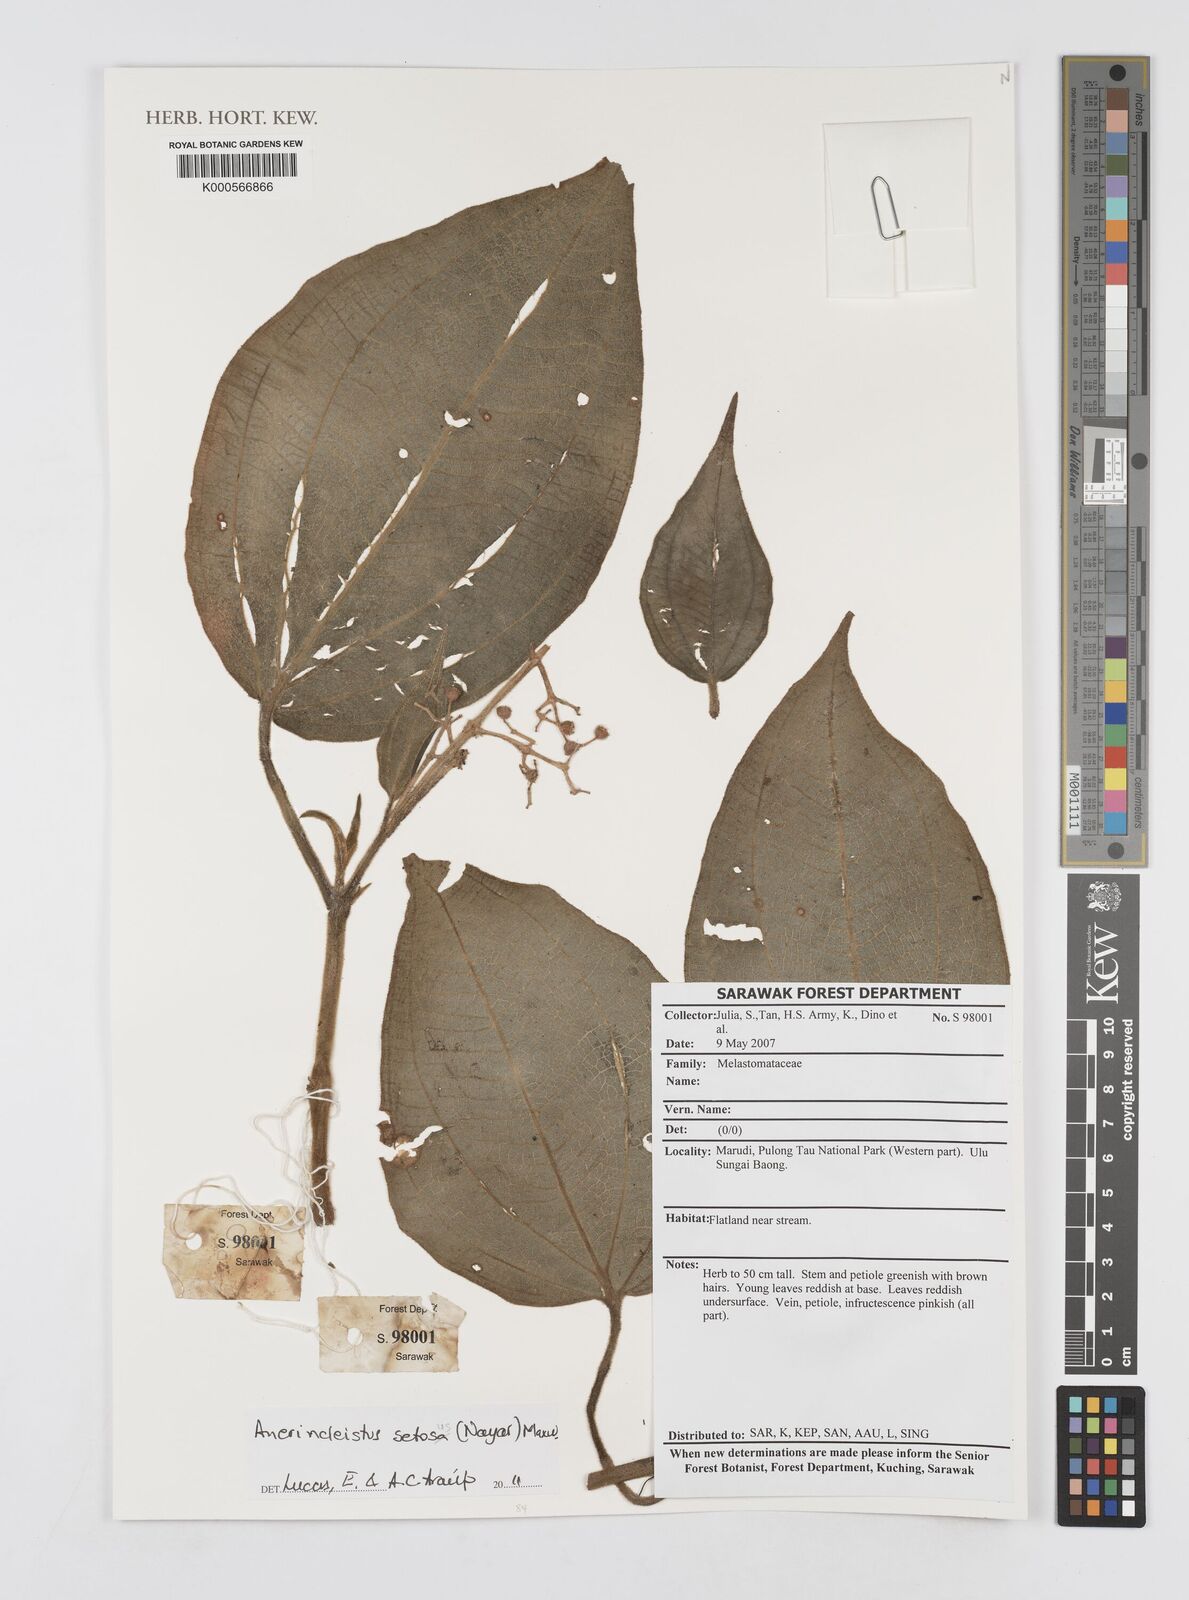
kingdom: Plantae
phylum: Tracheophyta
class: Magnoliopsida
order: Myrtales
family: Melastomataceae
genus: Anerincleistus
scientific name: Anerincleistus setosus
